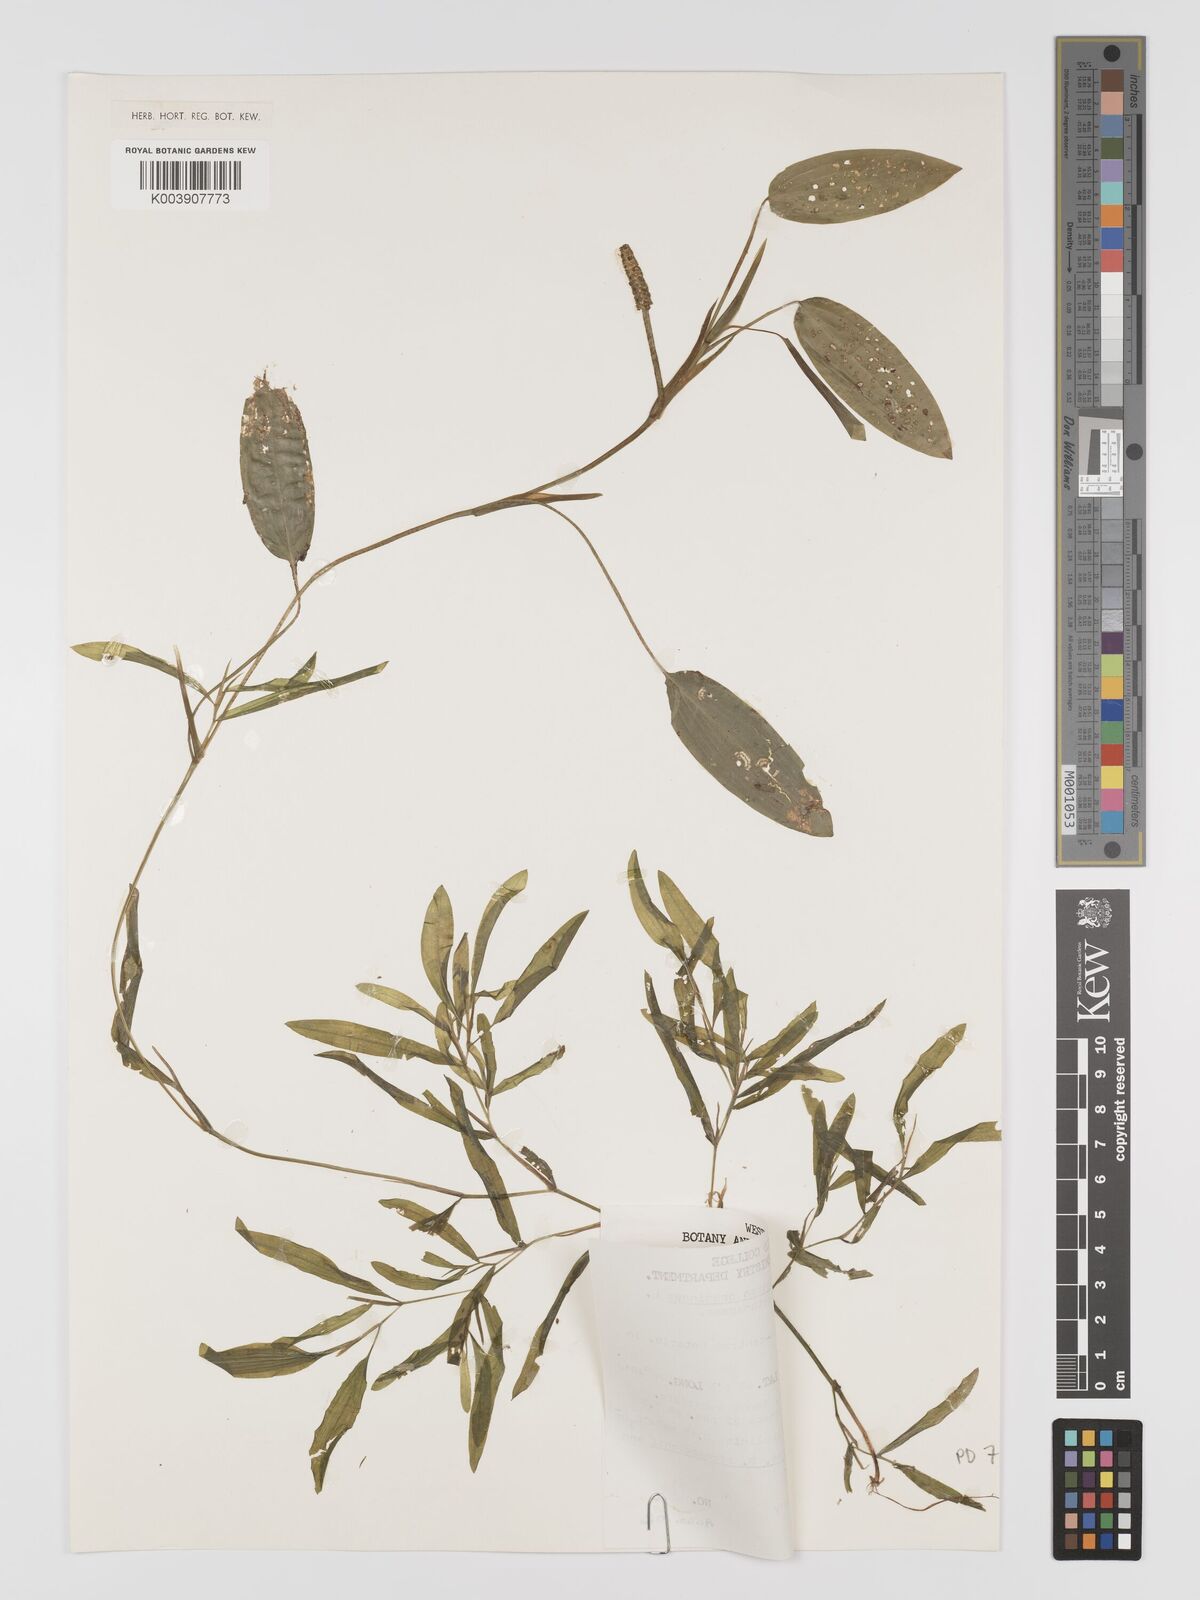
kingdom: Plantae
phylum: Tracheophyta
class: Liliopsida
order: Alismatales
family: Potamogetonaceae
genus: Potamogeton
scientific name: Potamogeton gramineus
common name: Various-leaved pondweed
